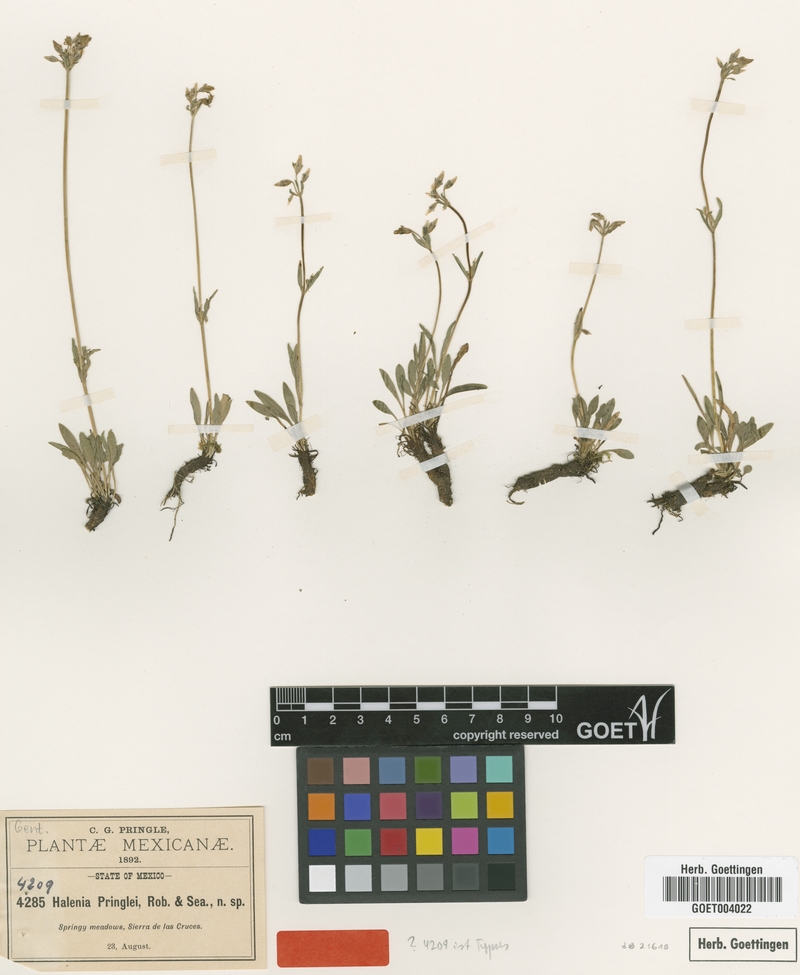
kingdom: Plantae
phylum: Tracheophyta
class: Magnoliopsida
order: Gentianales
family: Gentianaceae
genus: Halenia
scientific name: Halenia pringlei
